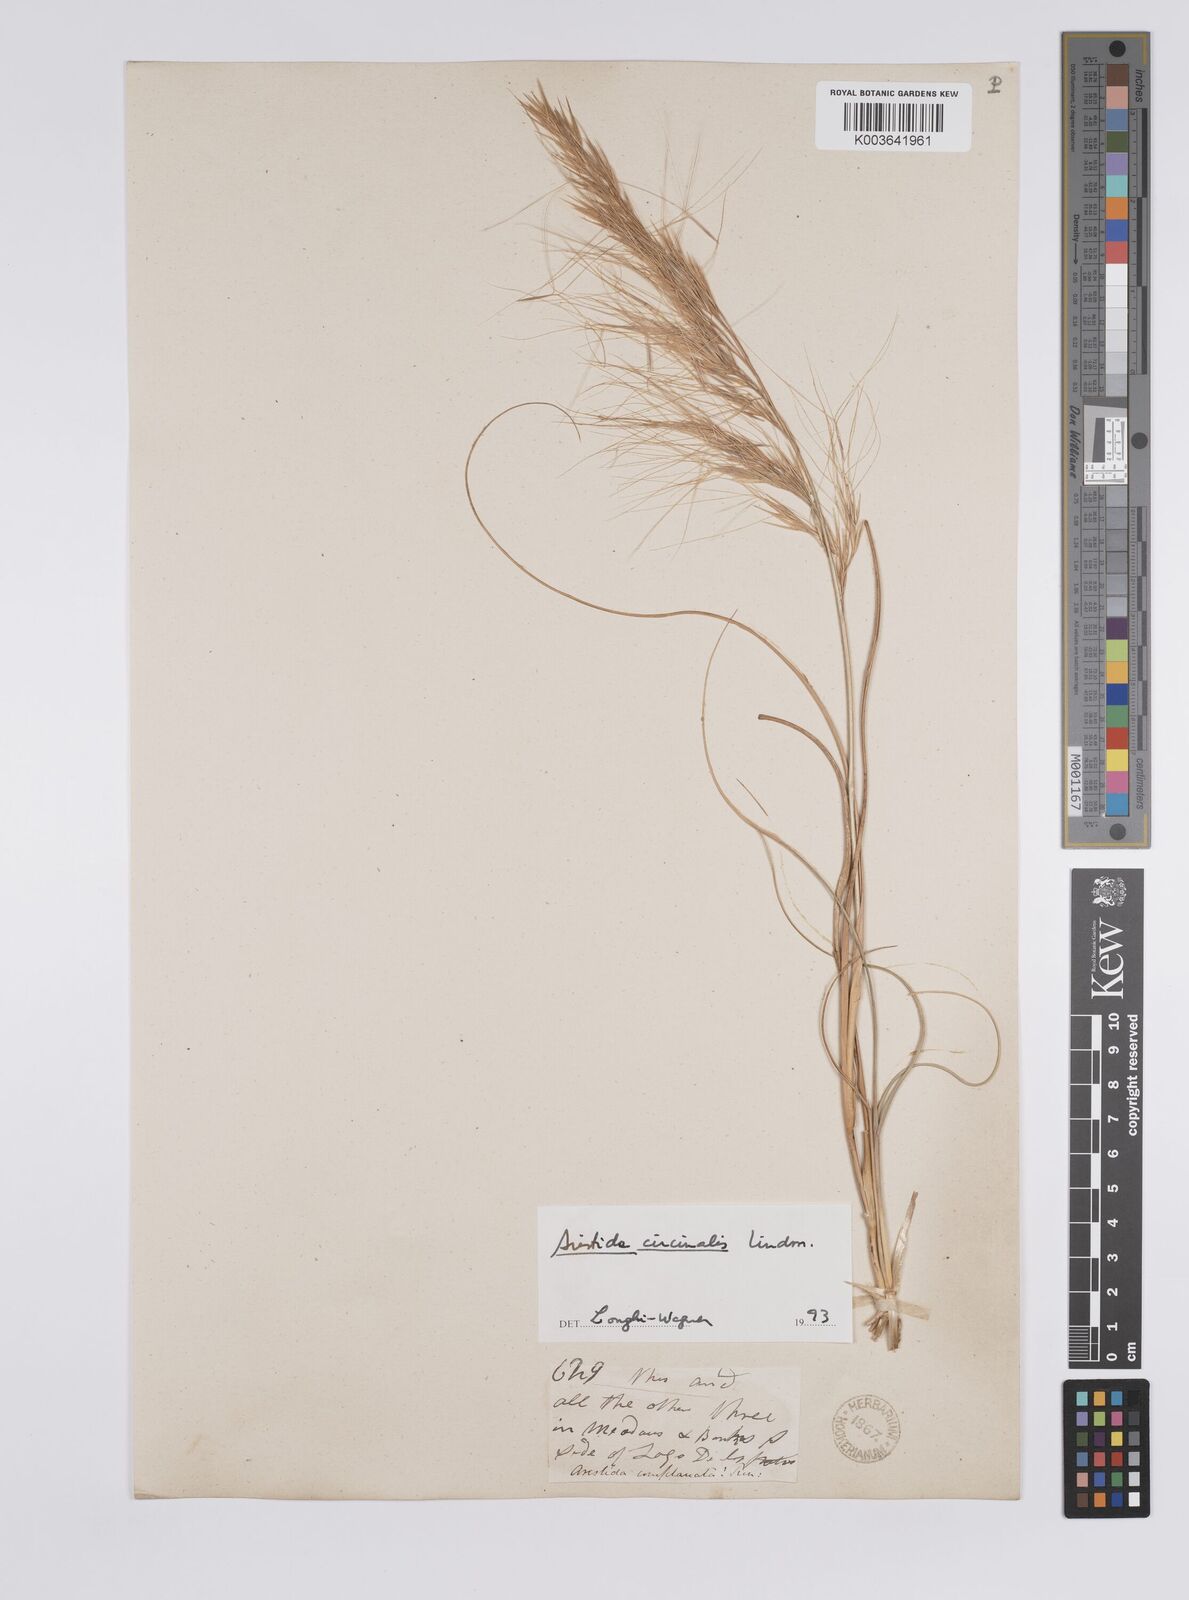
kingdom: Plantae
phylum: Tracheophyta
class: Liliopsida
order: Poales
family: Poaceae
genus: Aristida
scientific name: Aristida circinalis
